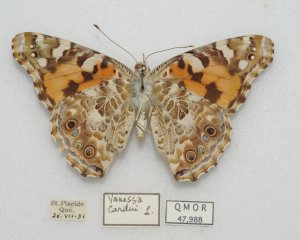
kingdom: Animalia
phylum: Arthropoda
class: Insecta
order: Lepidoptera
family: Nymphalidae
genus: Vanessa
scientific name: Vanessa cardui
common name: Painted Lady
